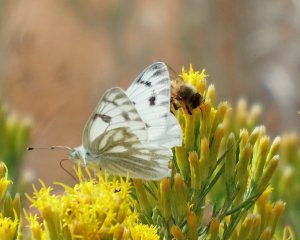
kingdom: Animalia
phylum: Arthropoda
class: Insecta
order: Lepidoptera
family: Pieridae
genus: Pontia
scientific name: Pontia occidentalis
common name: Western White
